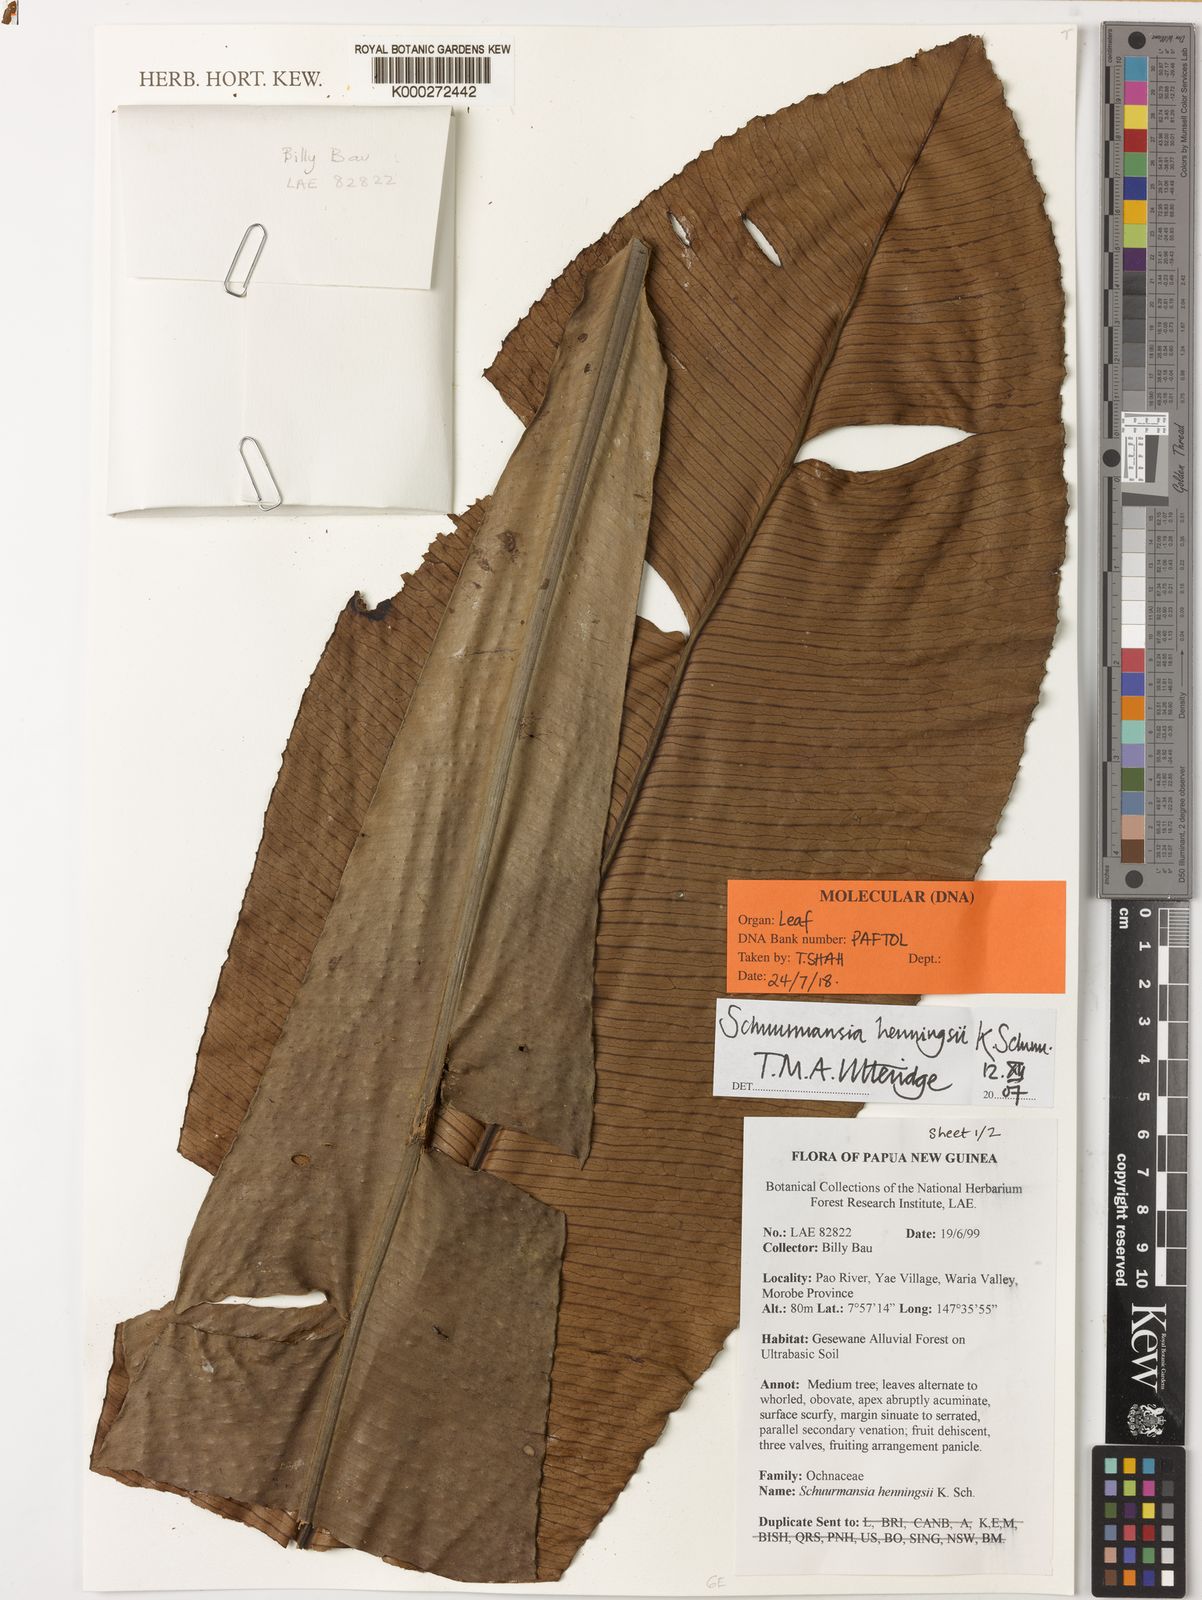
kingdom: Plantae
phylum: Tracheophyta
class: Magnoliopsida
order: Malpighiales
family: Ochnaceae
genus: Schuurmansia
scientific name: Schuurmansia henningsii
